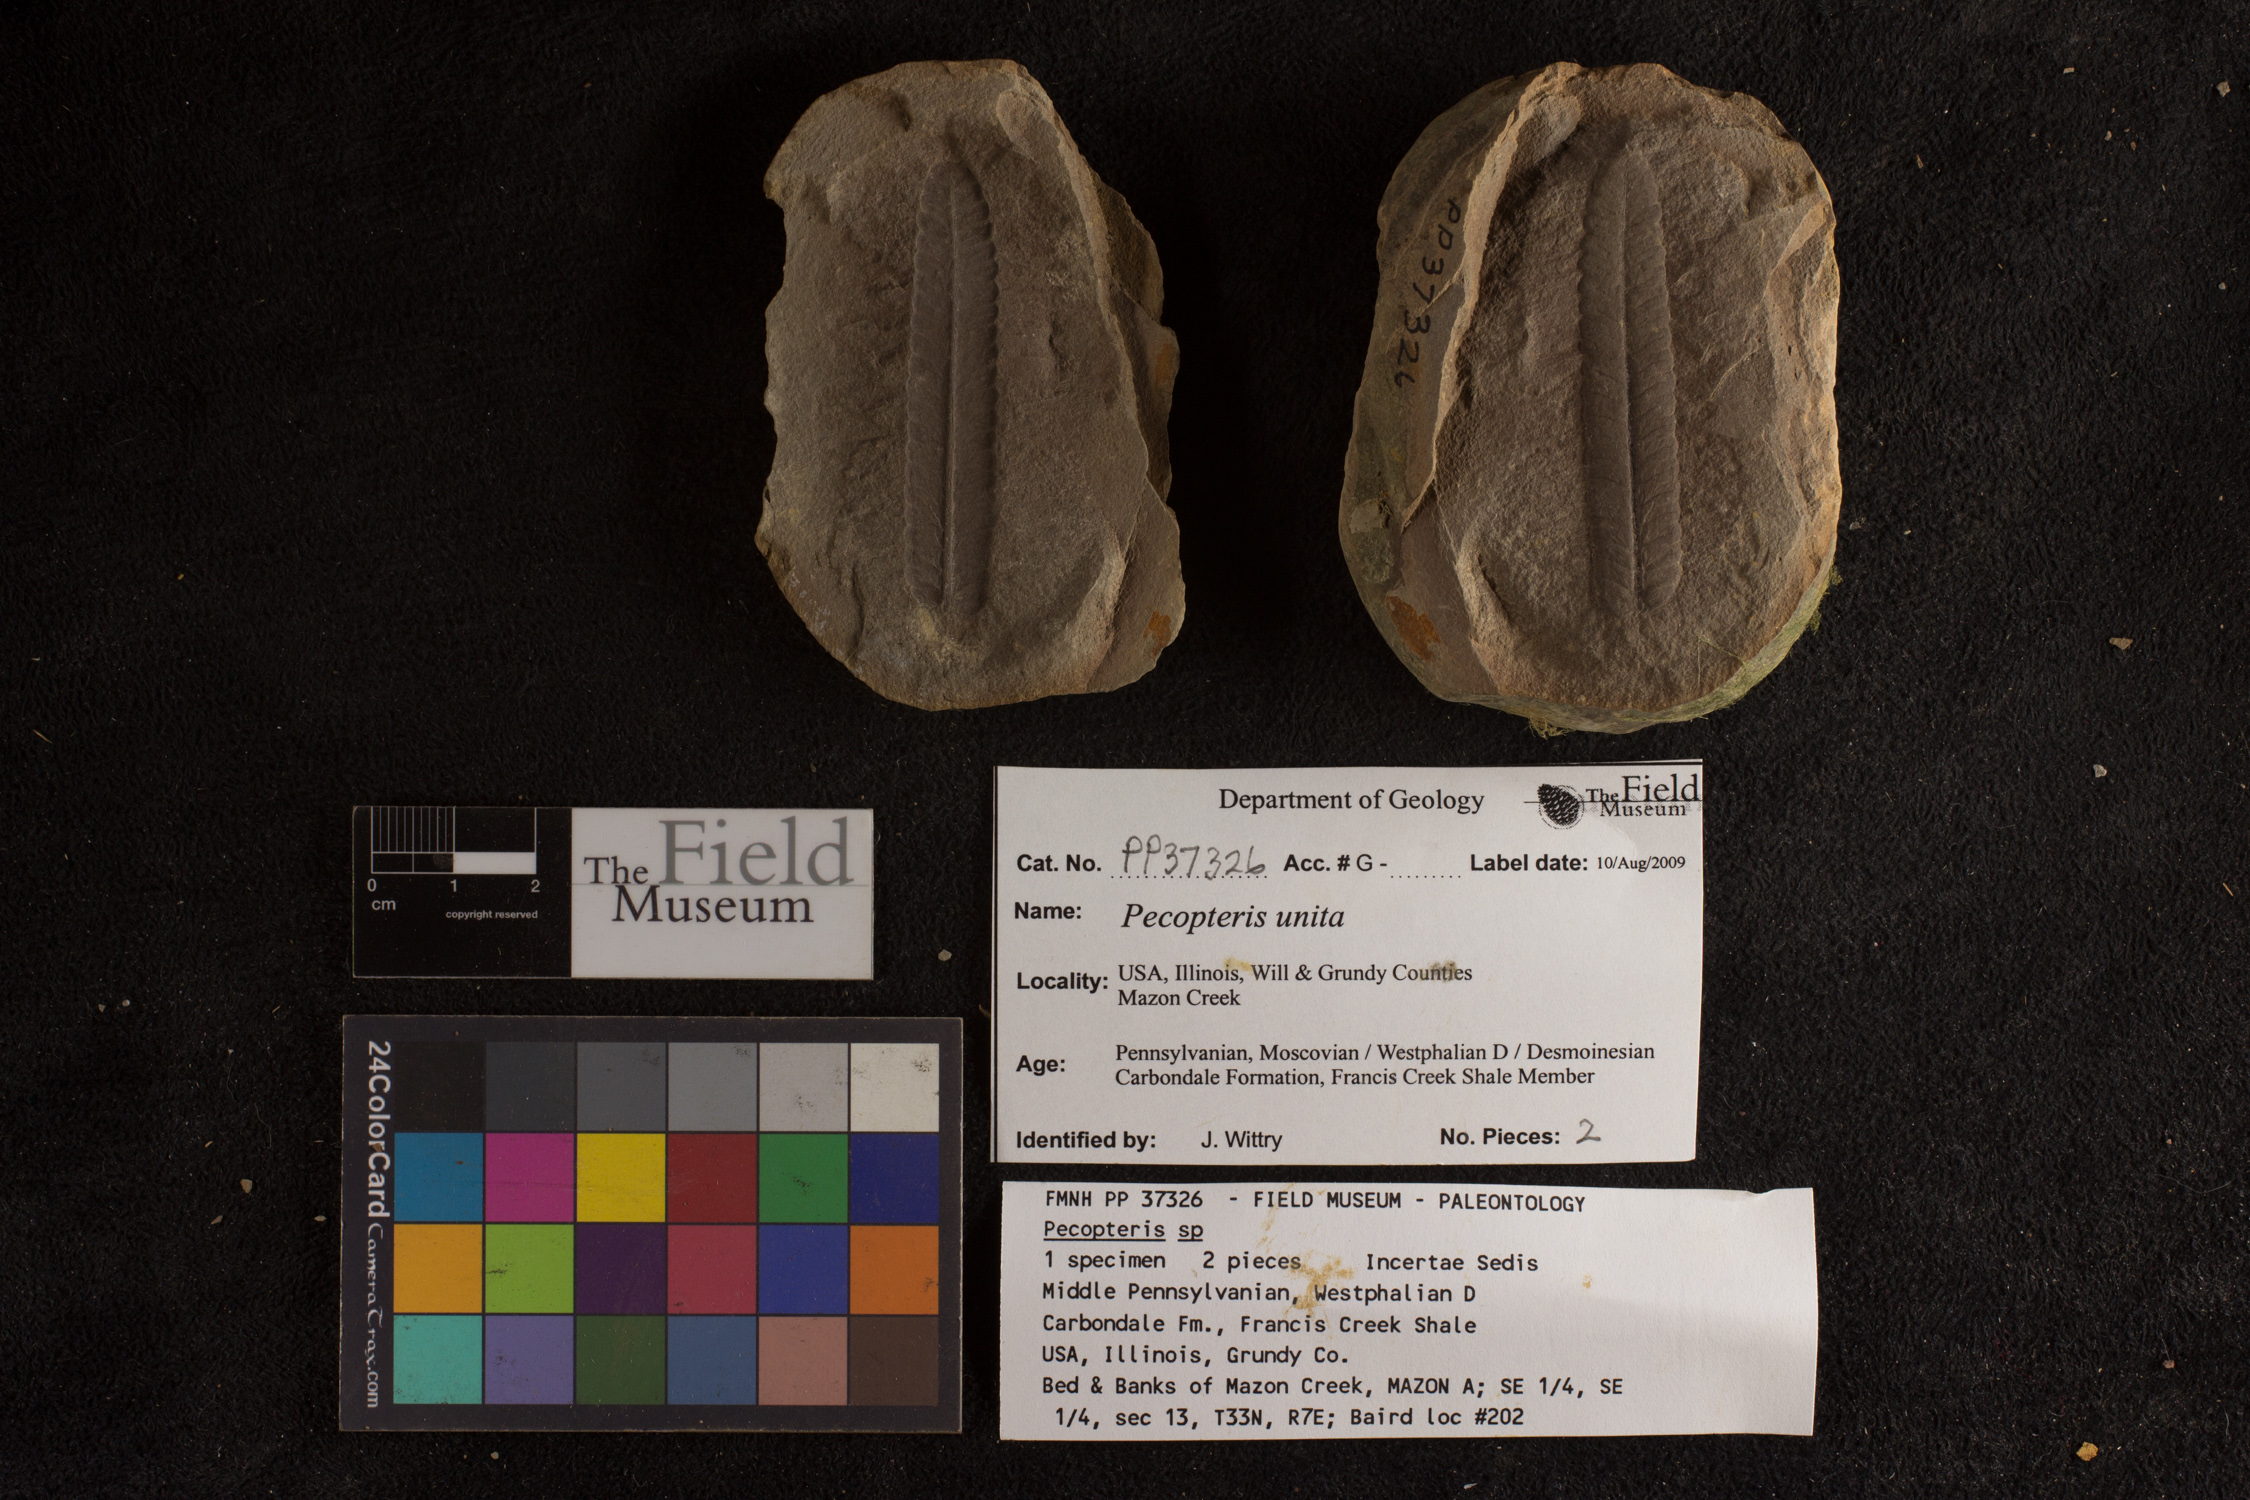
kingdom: Plantae
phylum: Tracheophyta
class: Polypodiopsida
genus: Diplazites
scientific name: Diplazites
